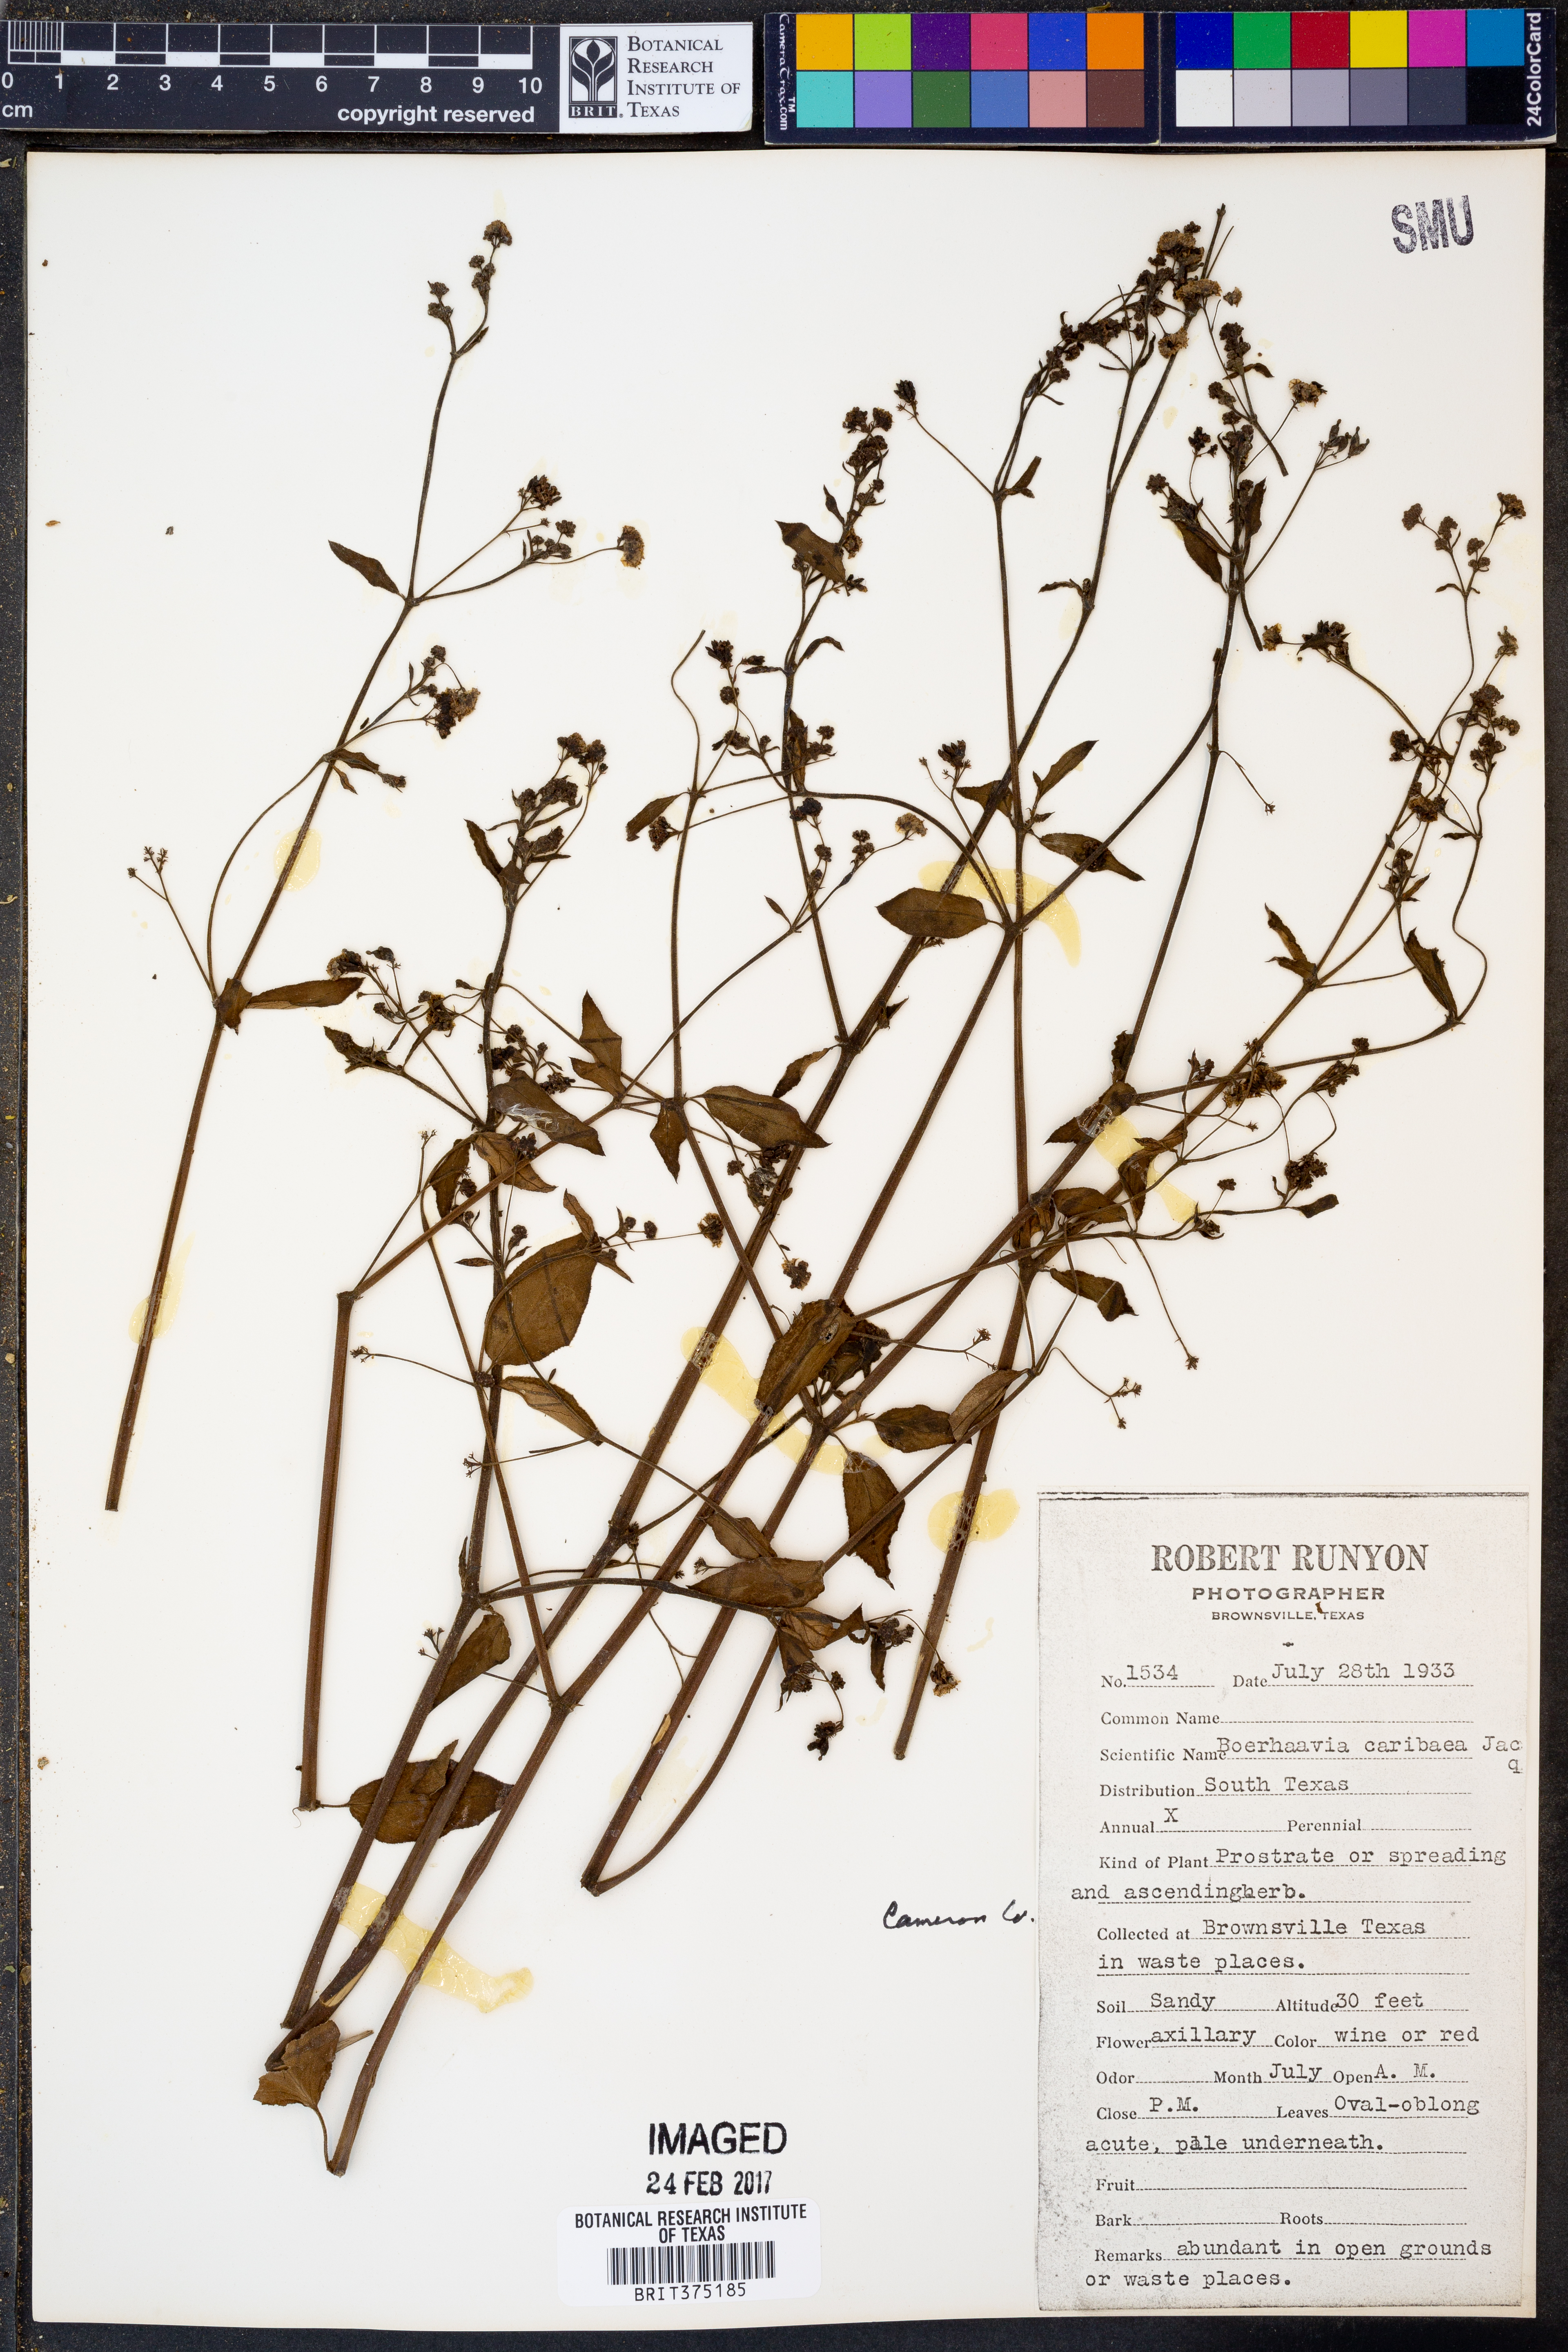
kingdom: Plantae
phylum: Tracheophyta
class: Magnoliopsida
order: Caryophyllales
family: Nyctaginaceae
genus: Boerhavia
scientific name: Boerhavia coccinea
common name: Scarlet spiderling
